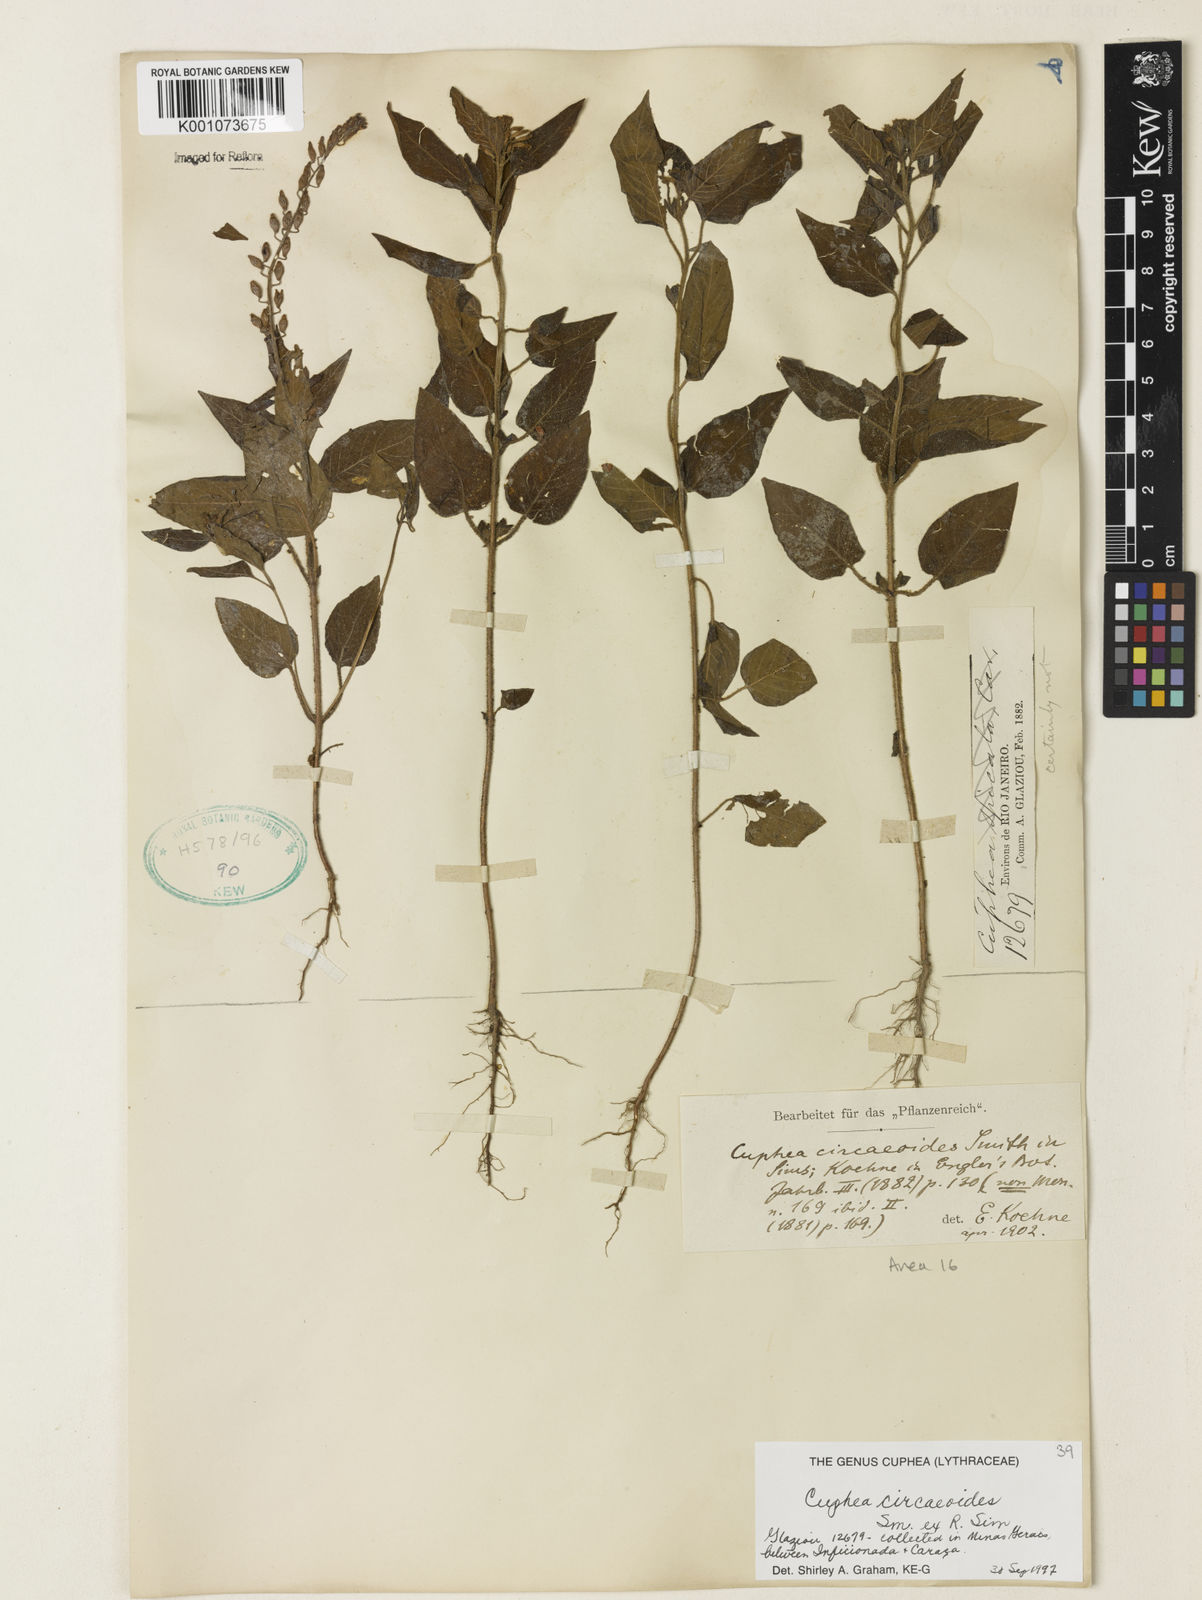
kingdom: Plantae
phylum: Tracheophyta
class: Magnoliopsida
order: Myrtales
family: Lythraceae
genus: Cuphea
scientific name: Cuphea circaeoides
